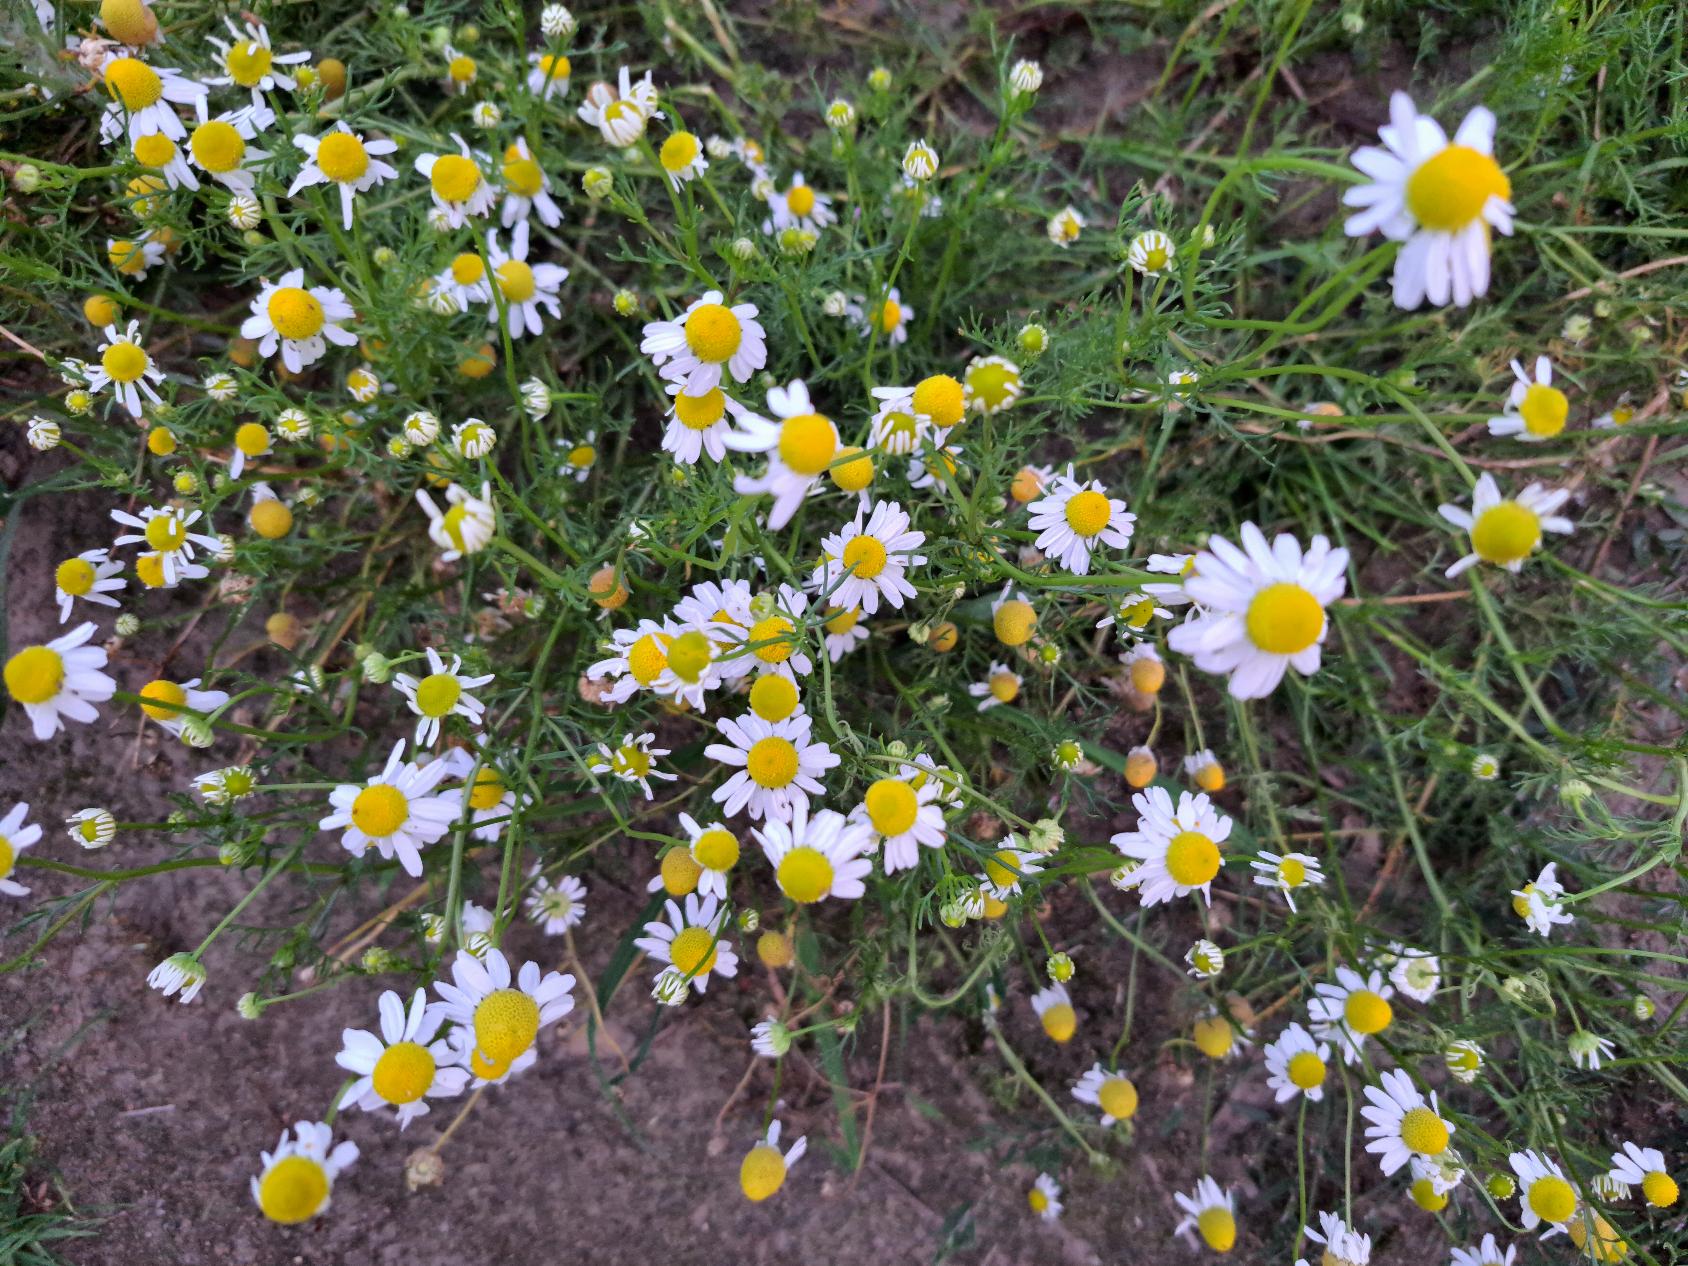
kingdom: Plantae
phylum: Tracheophyta
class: Magnoliopsida
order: Asterales
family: Asteraceae
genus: Matricaria
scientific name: Matricaria chamomilla
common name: Vellugtende kamille
